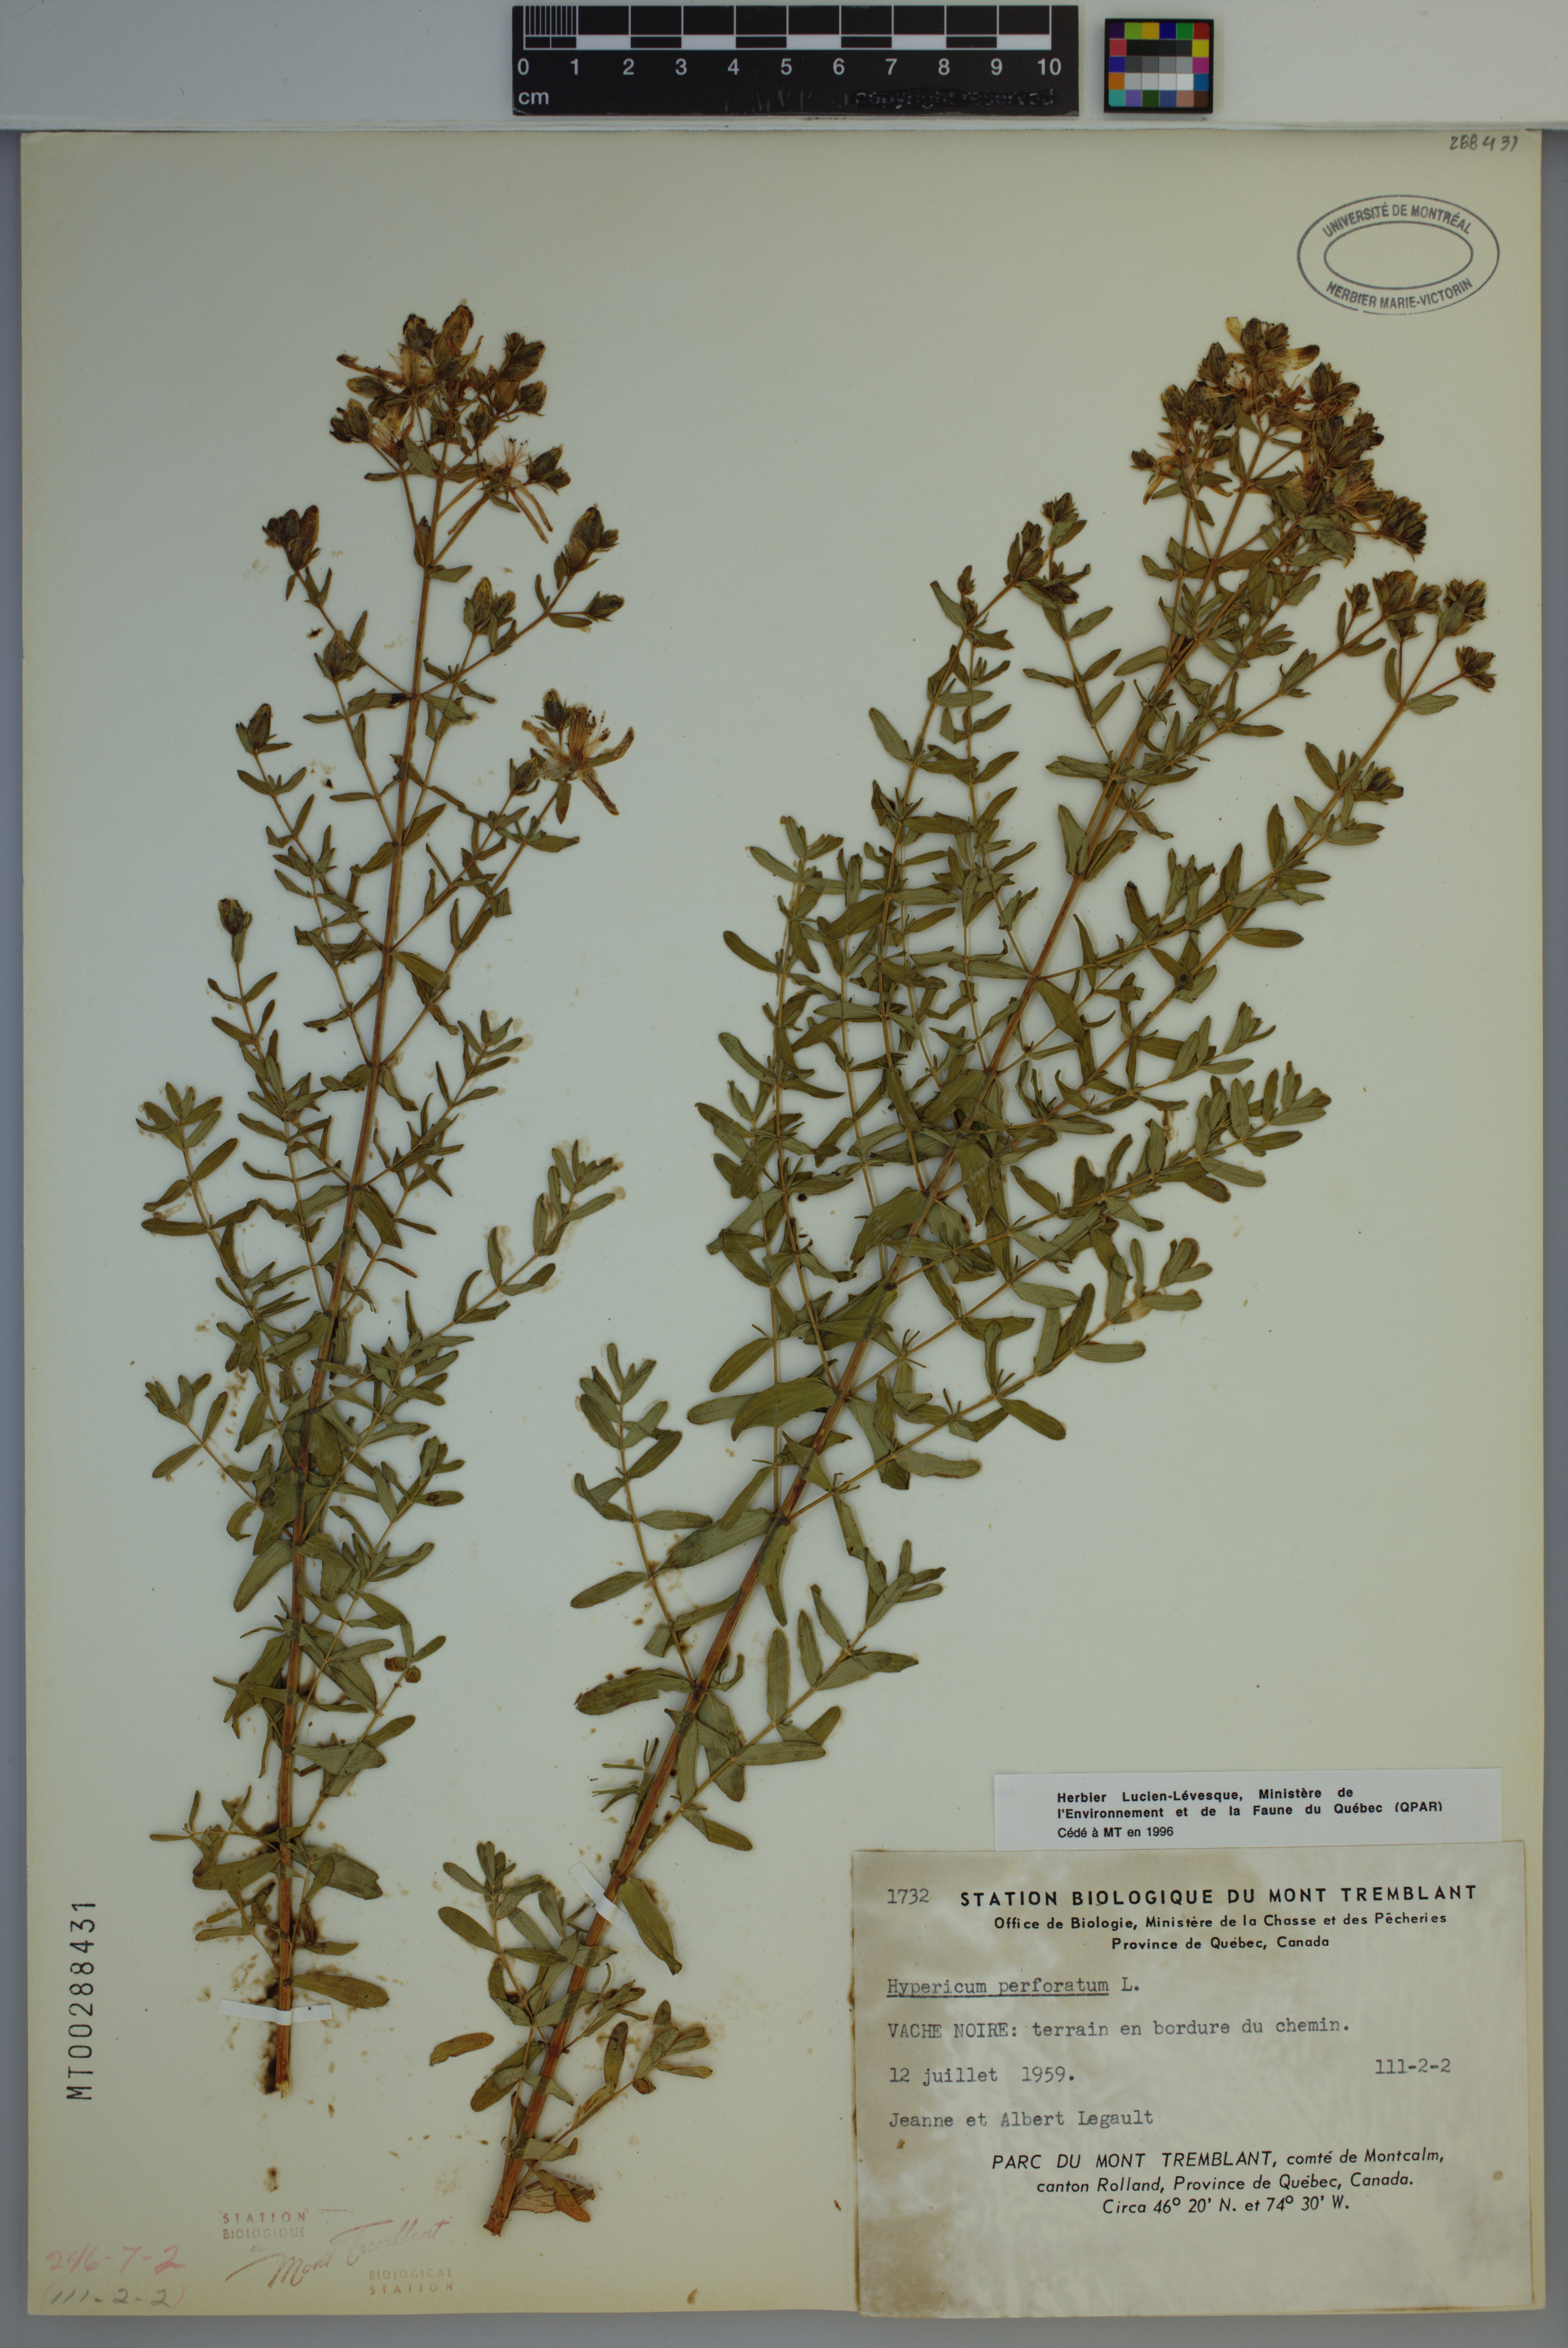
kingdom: Plantae
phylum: Tracheophyta
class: Magnoliopsida
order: Malpighiales
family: Hypericaceae
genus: Hypericum
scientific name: Hypericum perforatum
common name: Common st. johnswort
